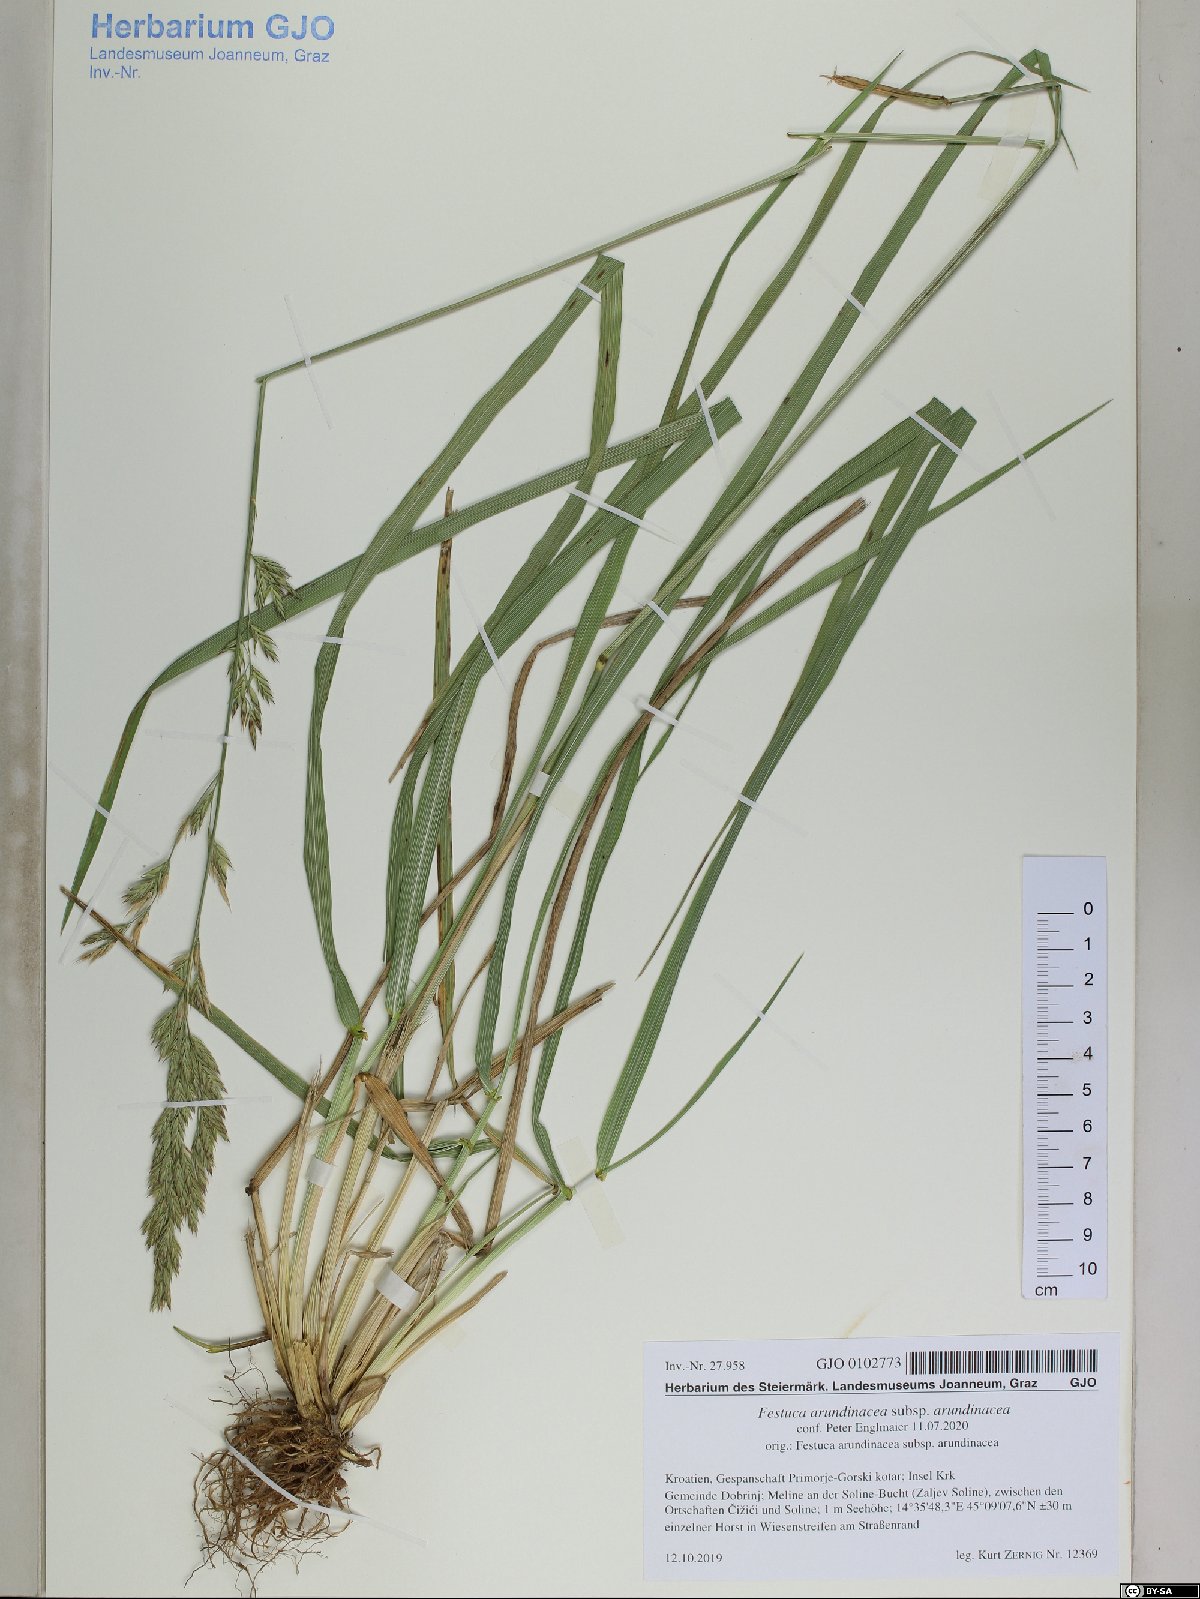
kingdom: Plantae
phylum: Tracheophyta
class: Liliopsida
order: Poales
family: Poaceae
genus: Lolium
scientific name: Lolium arundinaceum
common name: Reed fescue
